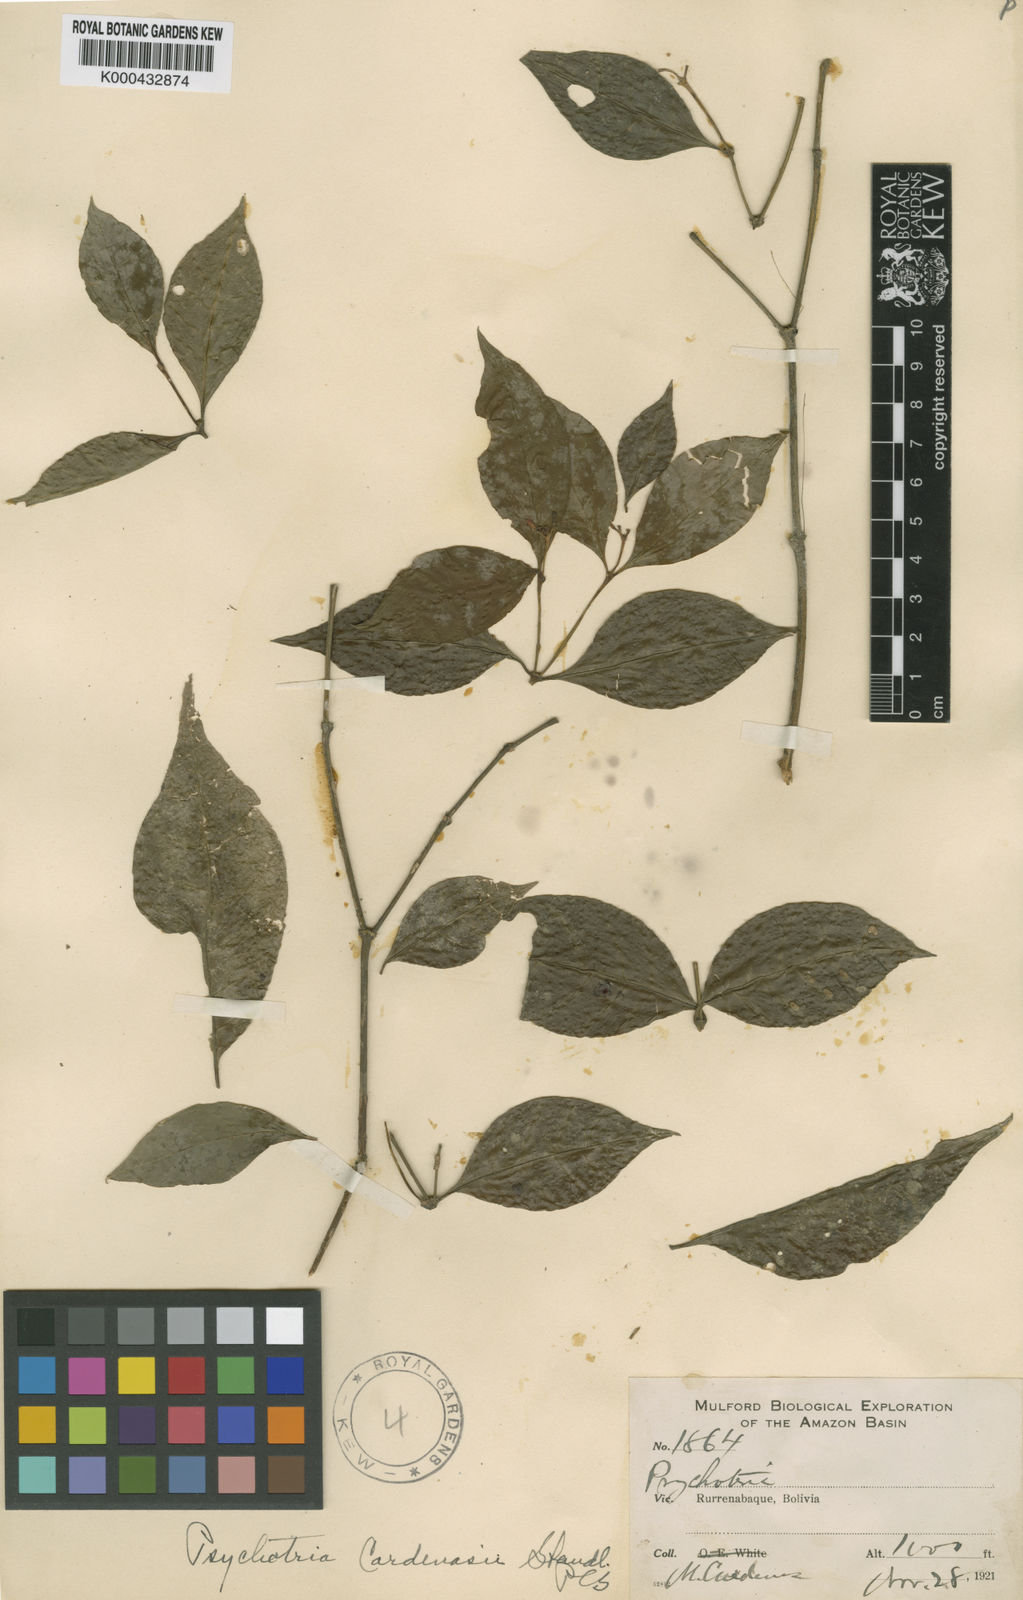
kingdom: Plantae
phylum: Tracheophyta
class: Magnoliopsida
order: Gentianales
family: Rubiaceae
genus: Psychotria
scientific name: Psychotria cardenasii
